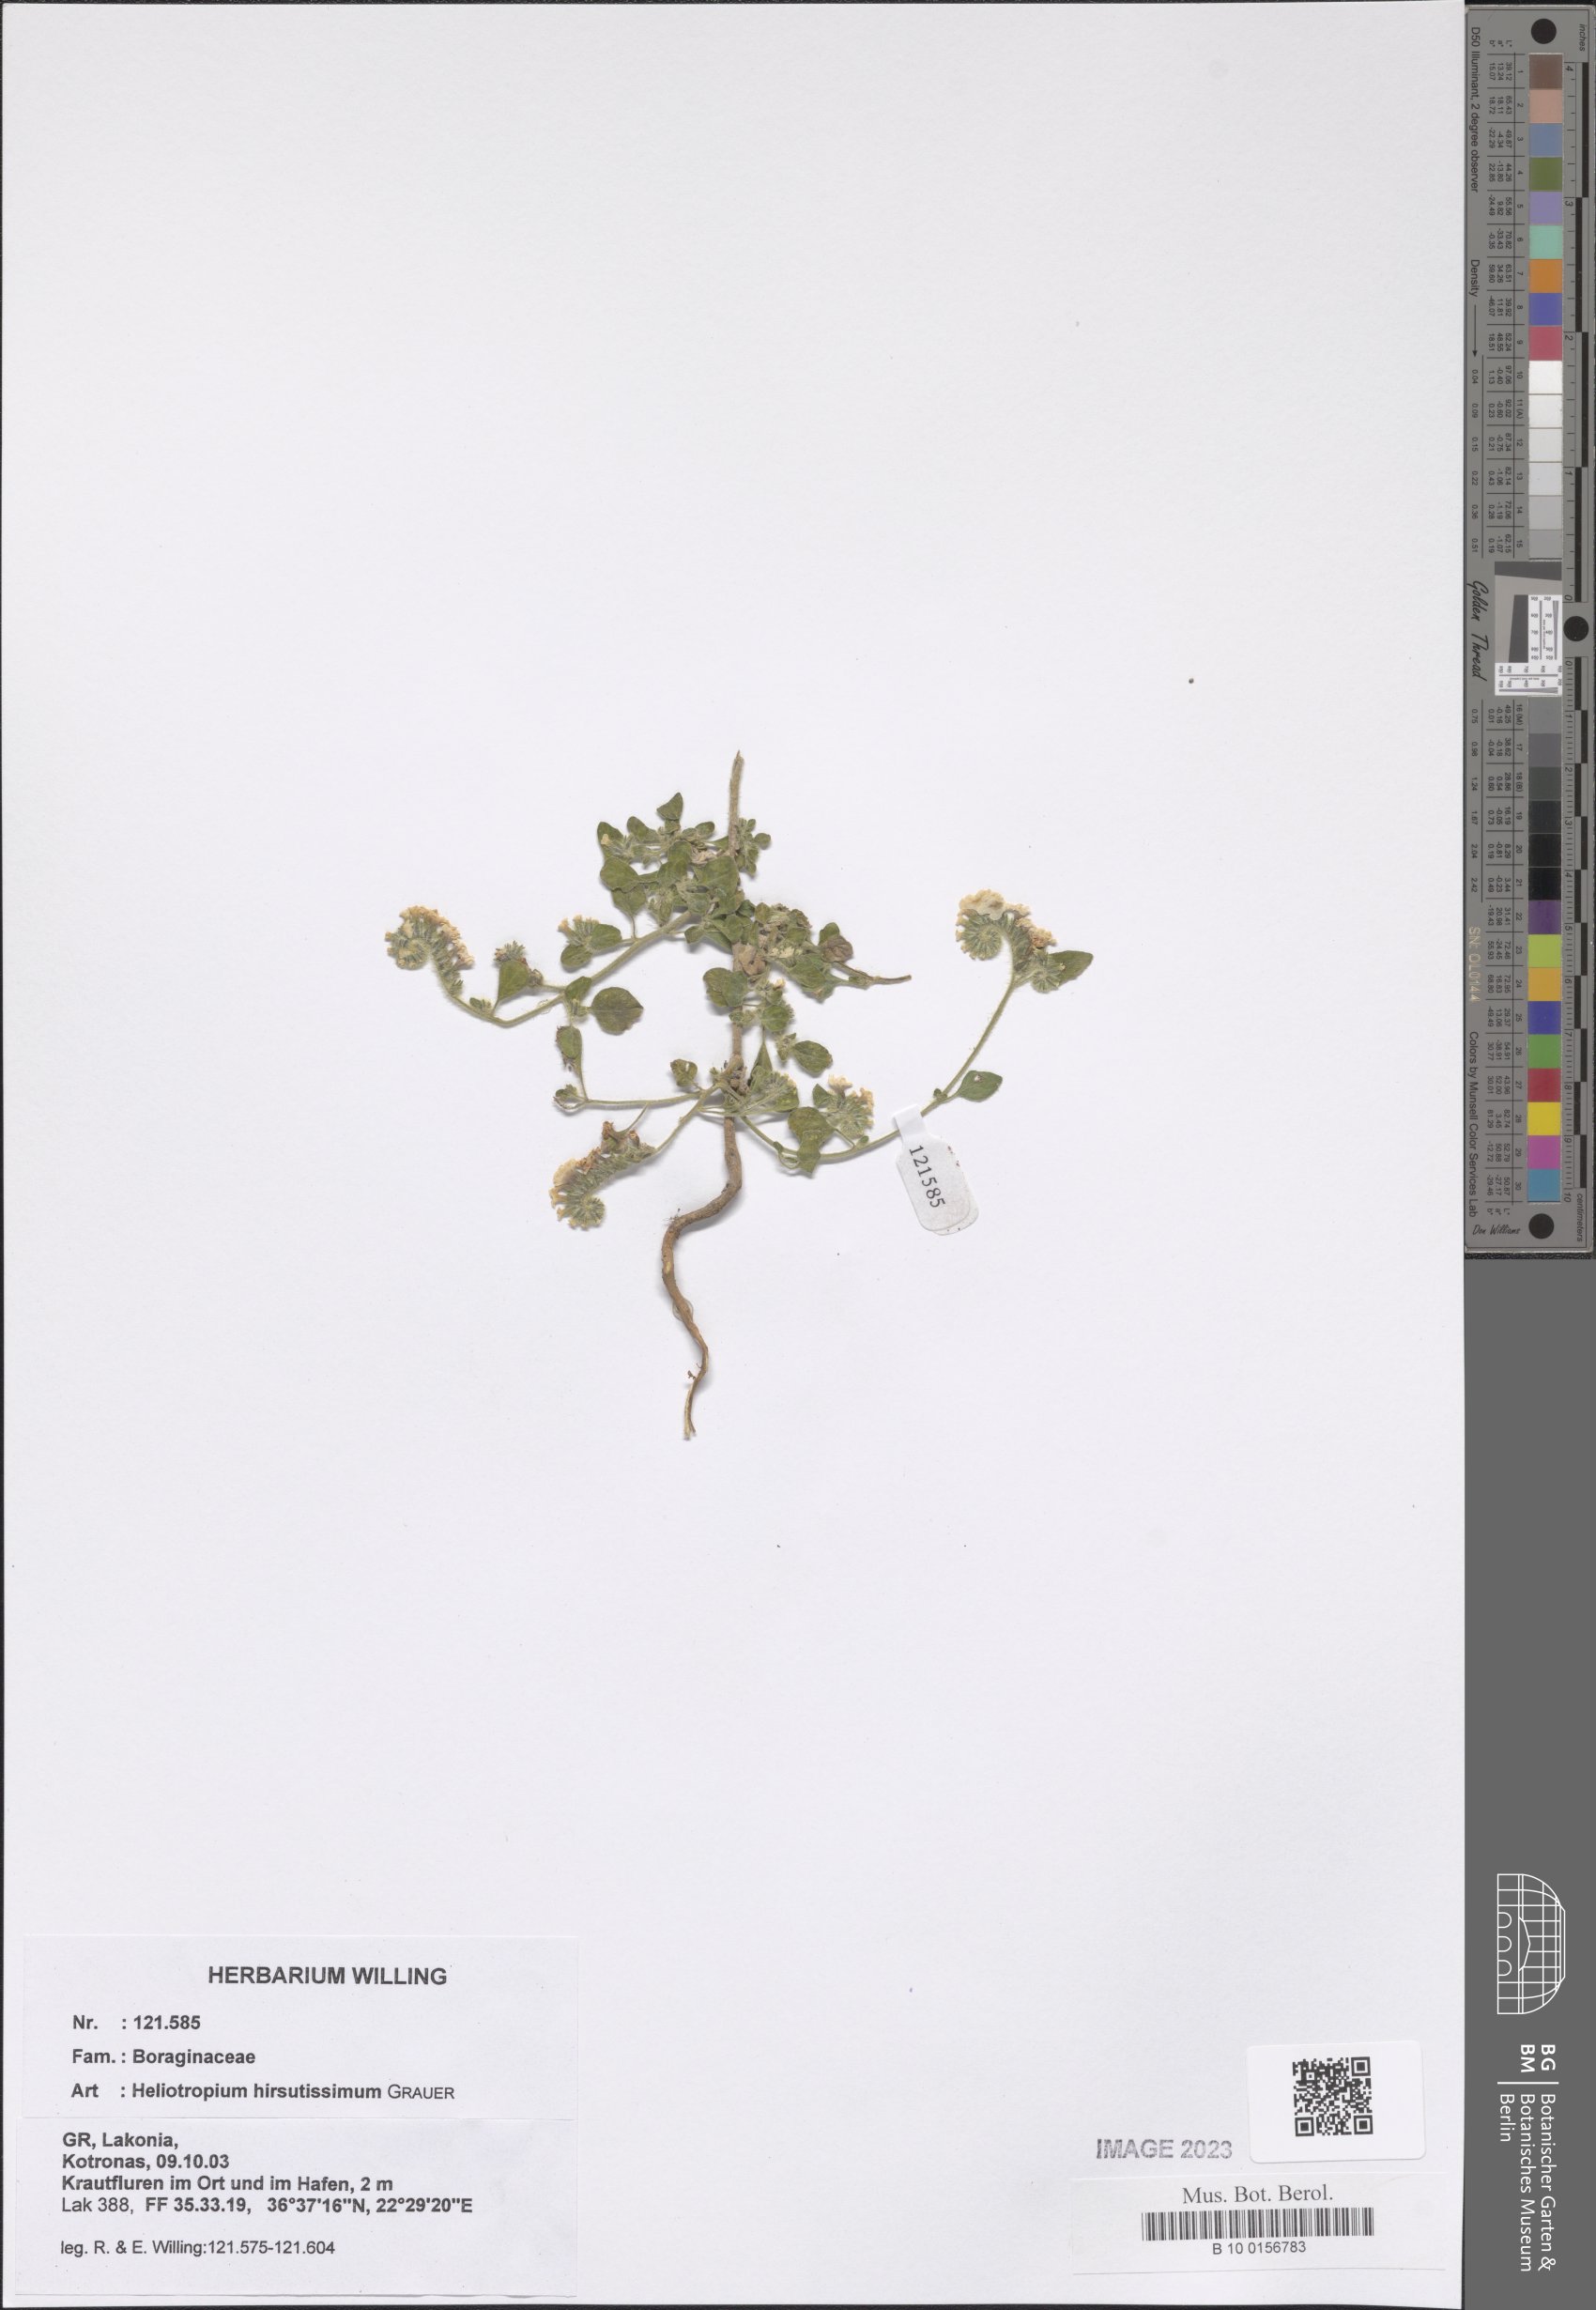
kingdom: Plantae
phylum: Tracheophyta
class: Magnoliopsida
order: Boraginales
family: Heliotropiaceae
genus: Heliotropium
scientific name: Heliotropium hirsutissimum
